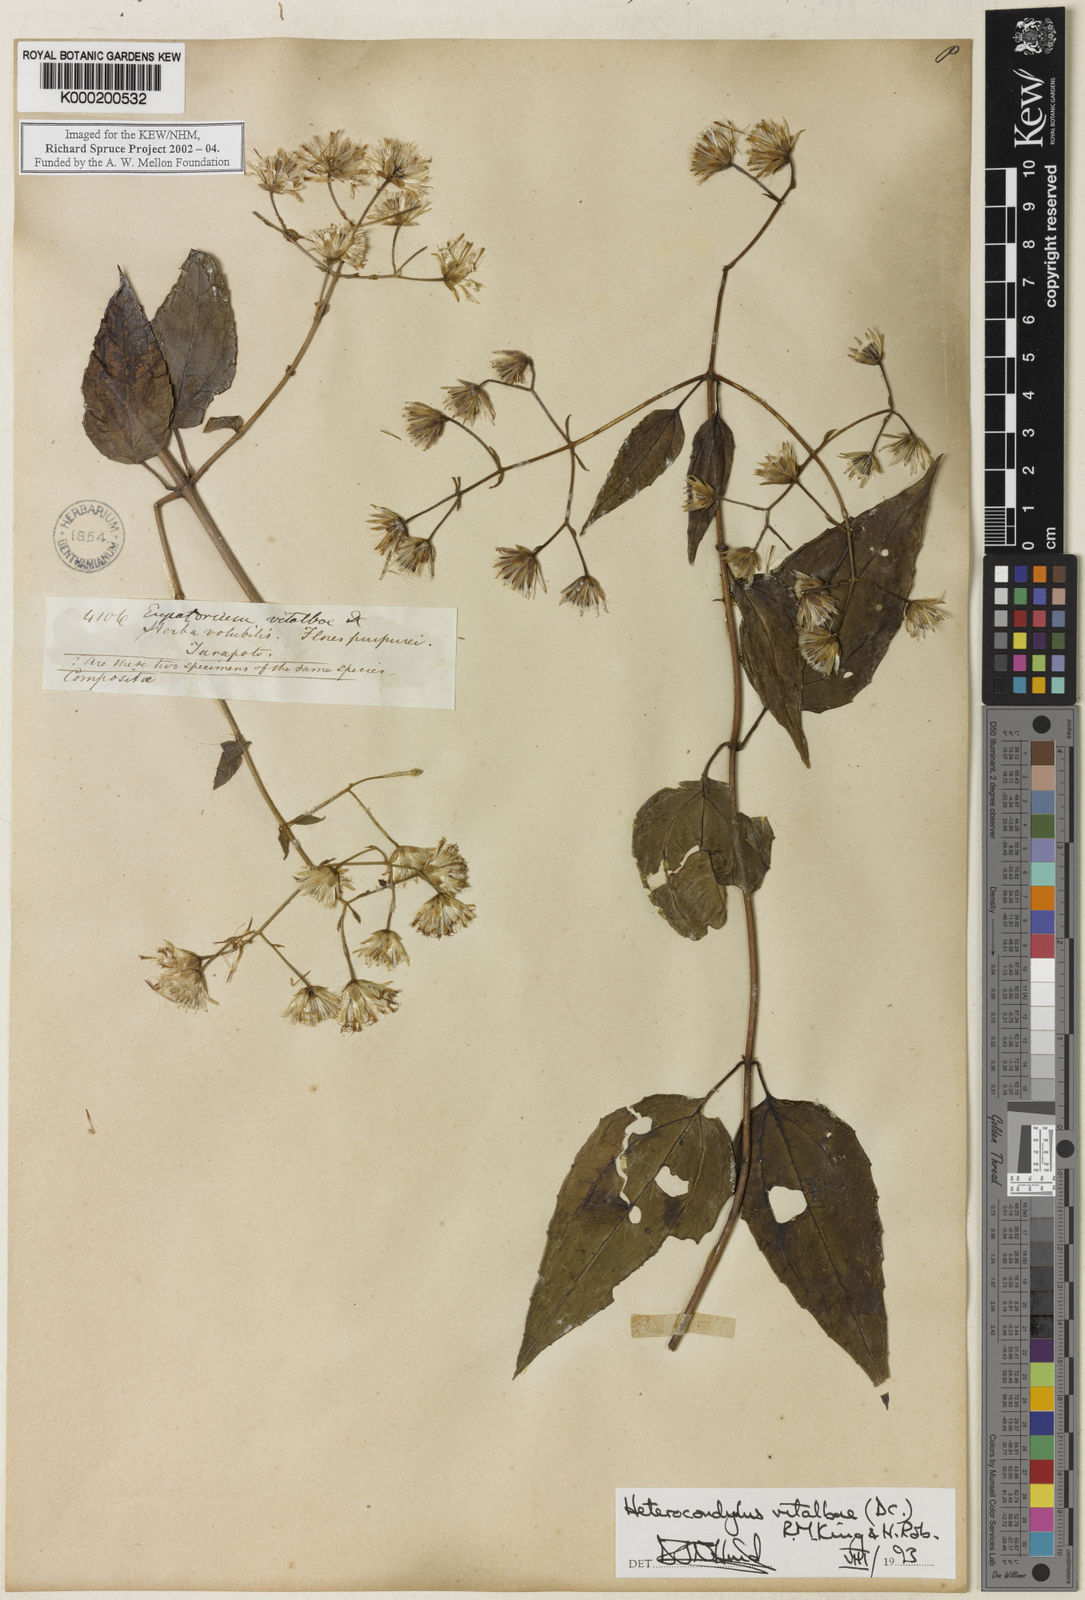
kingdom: Plantae
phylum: Tracheophyta
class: Magnoliopsida
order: Asterales
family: Asteraceae
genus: Heterocondylus
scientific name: Heterocondylus vitalbae
